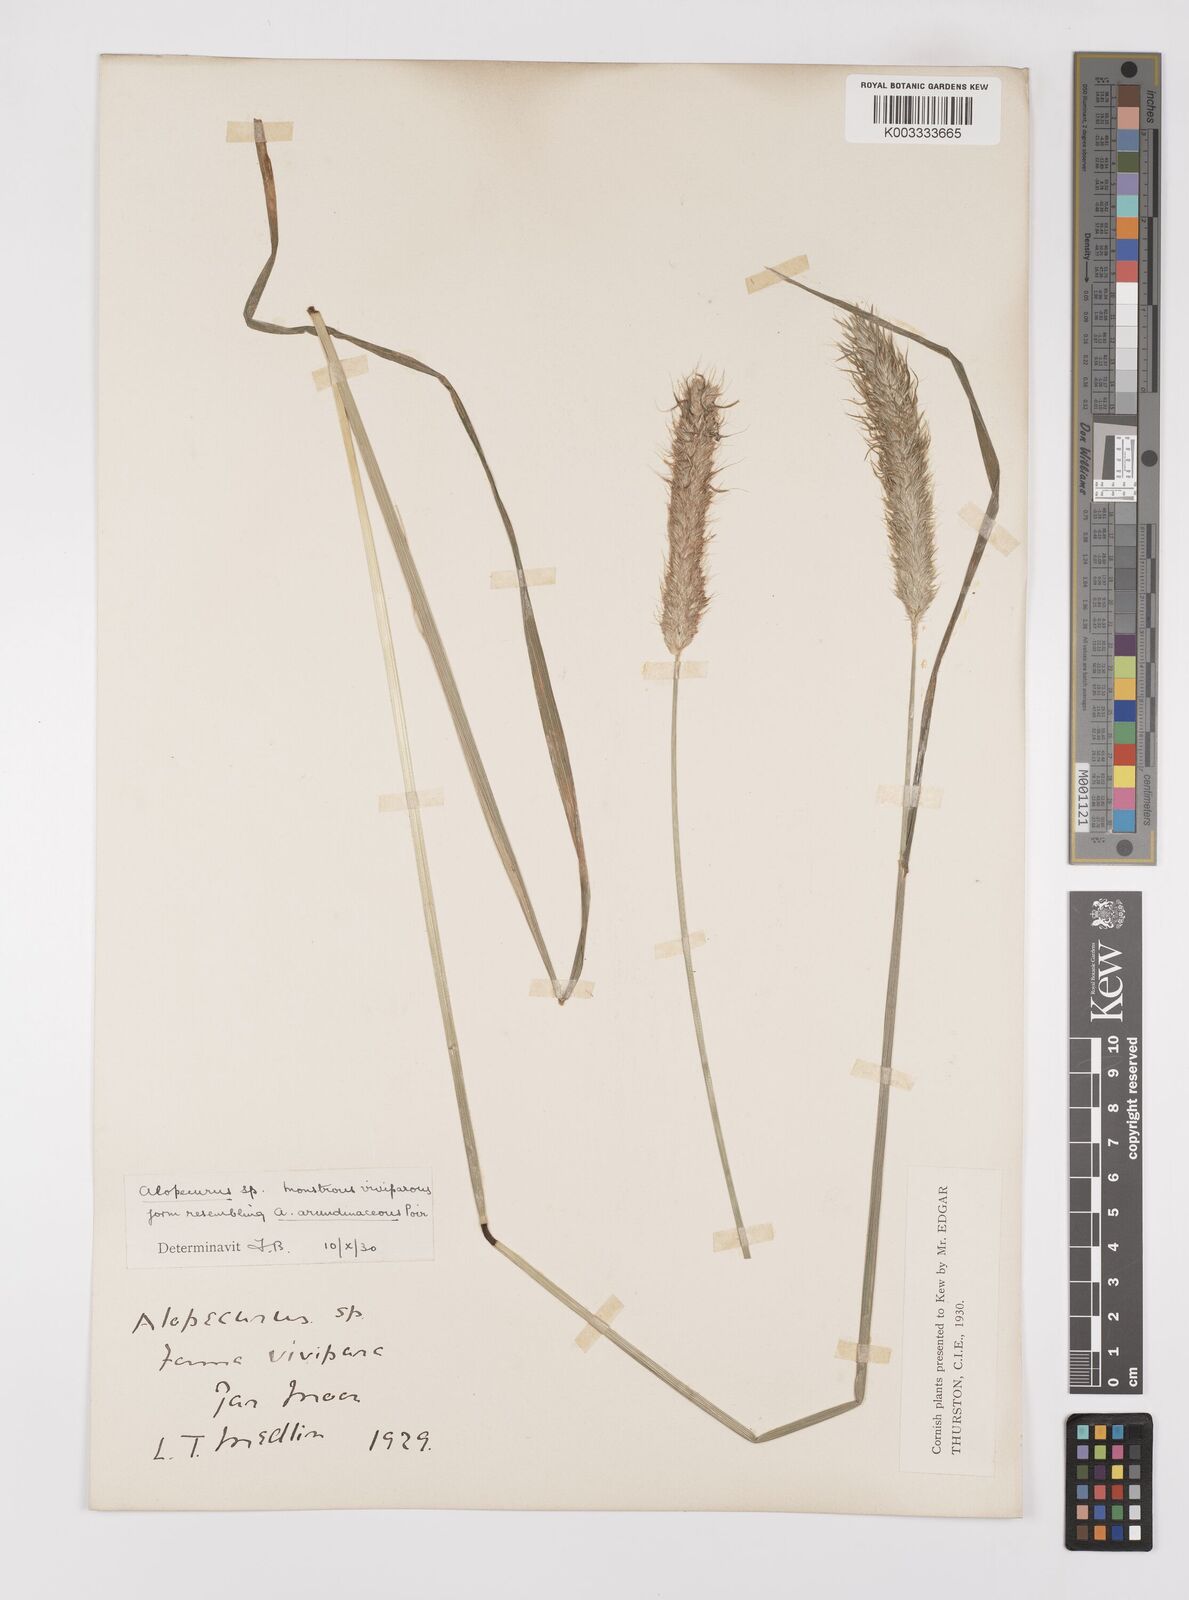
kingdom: Plantae
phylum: Tracheophyta
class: Liliopsida
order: Poales
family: Poaceae
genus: Alopecurus
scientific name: Alopecurus pratensis
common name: Meadow foxtail
